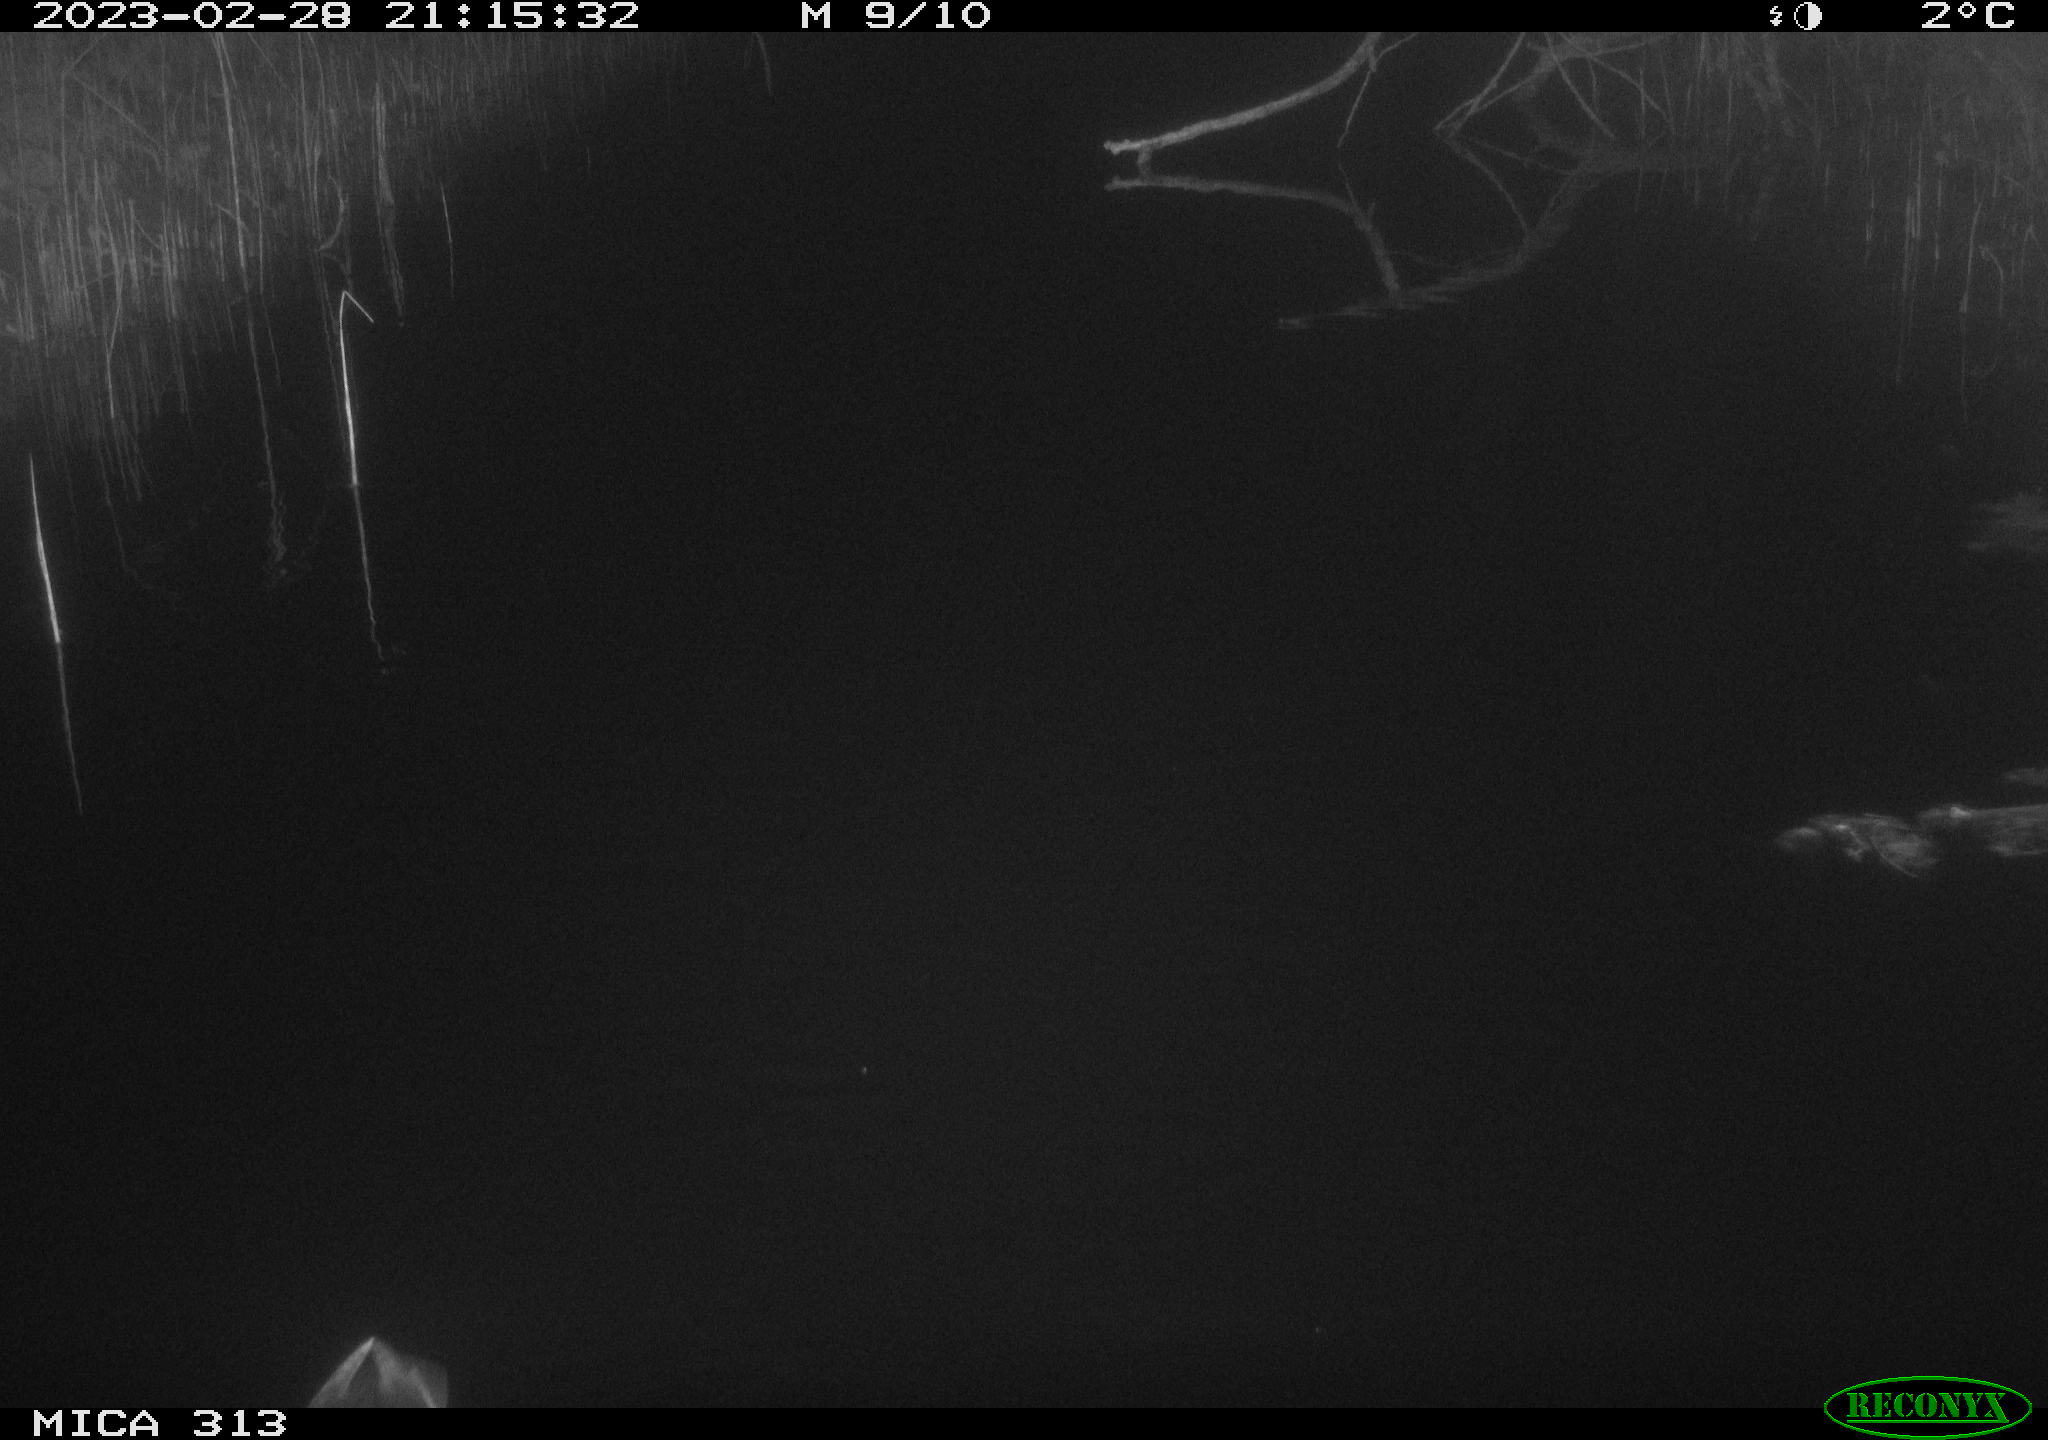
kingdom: Animalia
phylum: Chordata
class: Aves
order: Anseriformes
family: Anatidae
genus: Anas
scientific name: Anas
